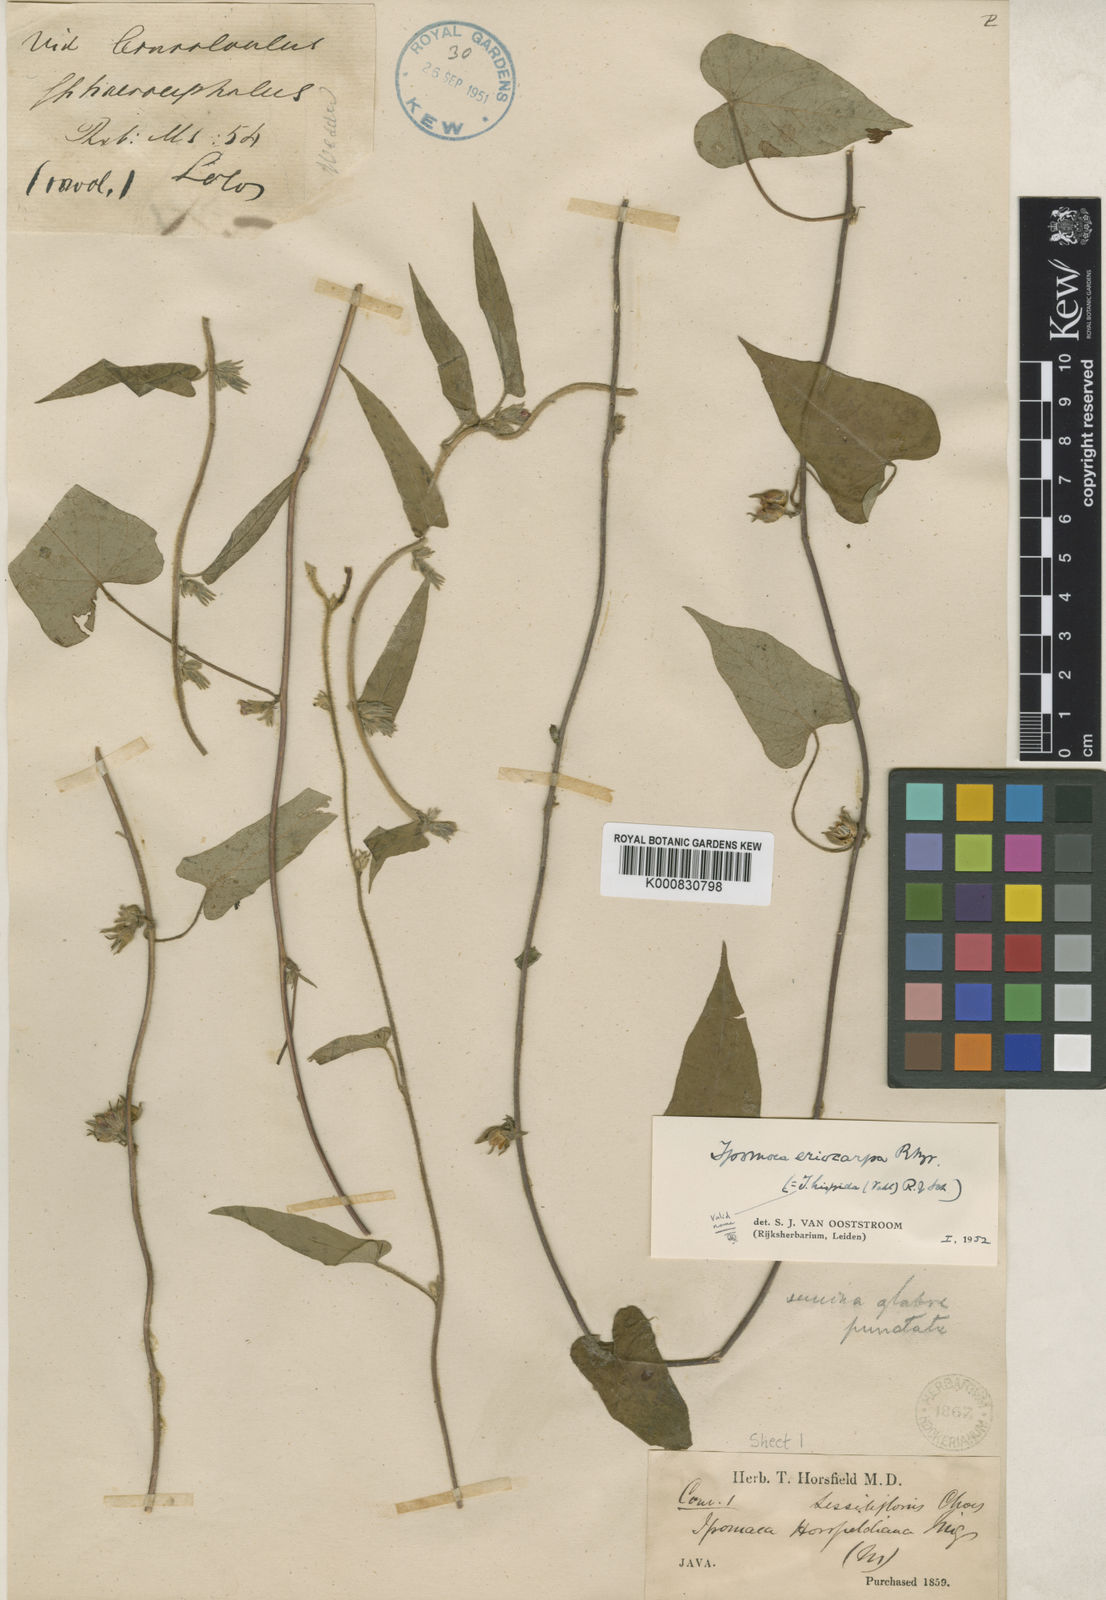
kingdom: Plantae
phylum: Tracheophyta
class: Magnoliopsida
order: Solanales
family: Convolvulaceae
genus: Ipomoea
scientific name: Ipomoea eriocarpa
